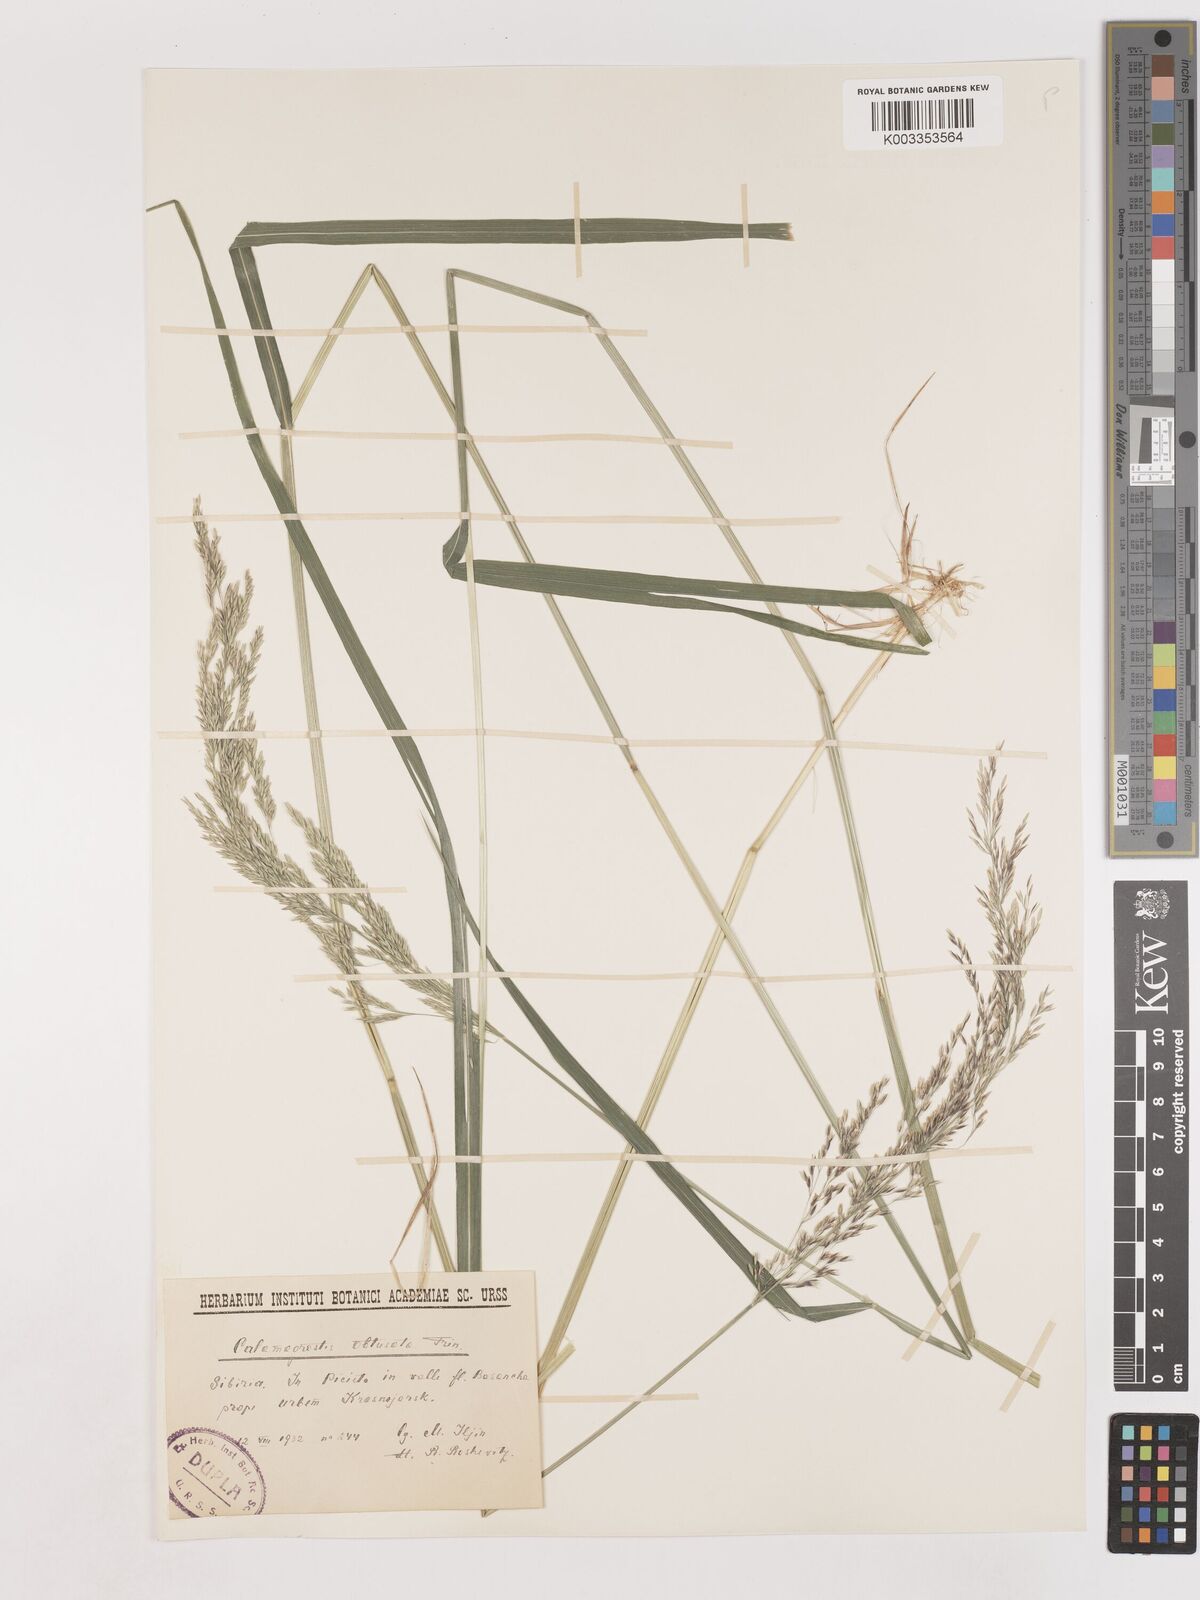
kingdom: Plantae
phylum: Tracheophyta
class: Liliopsida
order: Poales
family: Poaceae
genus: Cinnagrostis
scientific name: Cinnagrostis spicigera
